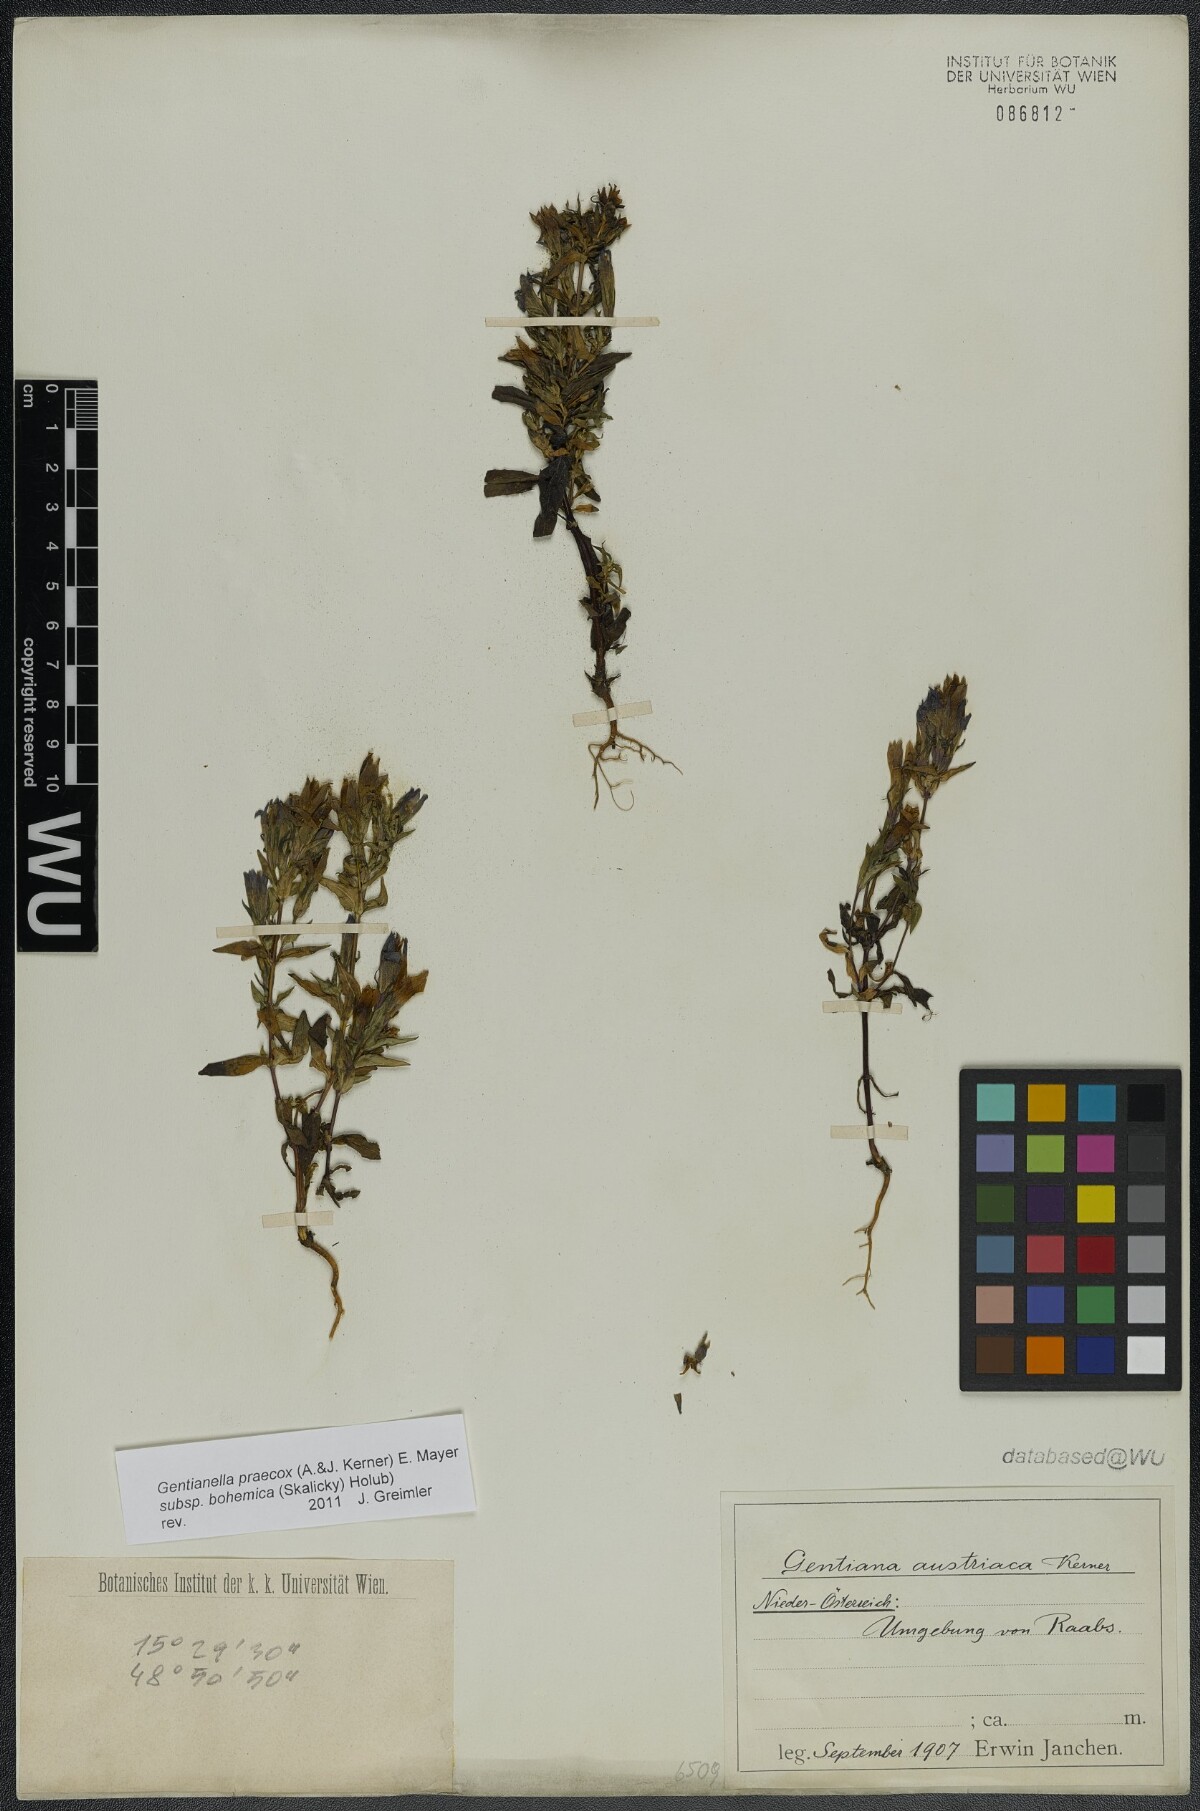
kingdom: Plantae
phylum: Tracheophyta
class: Magnoliopsida
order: Gentianales
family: Gentianaceae
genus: Gentianella
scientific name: Gentianella praecox
